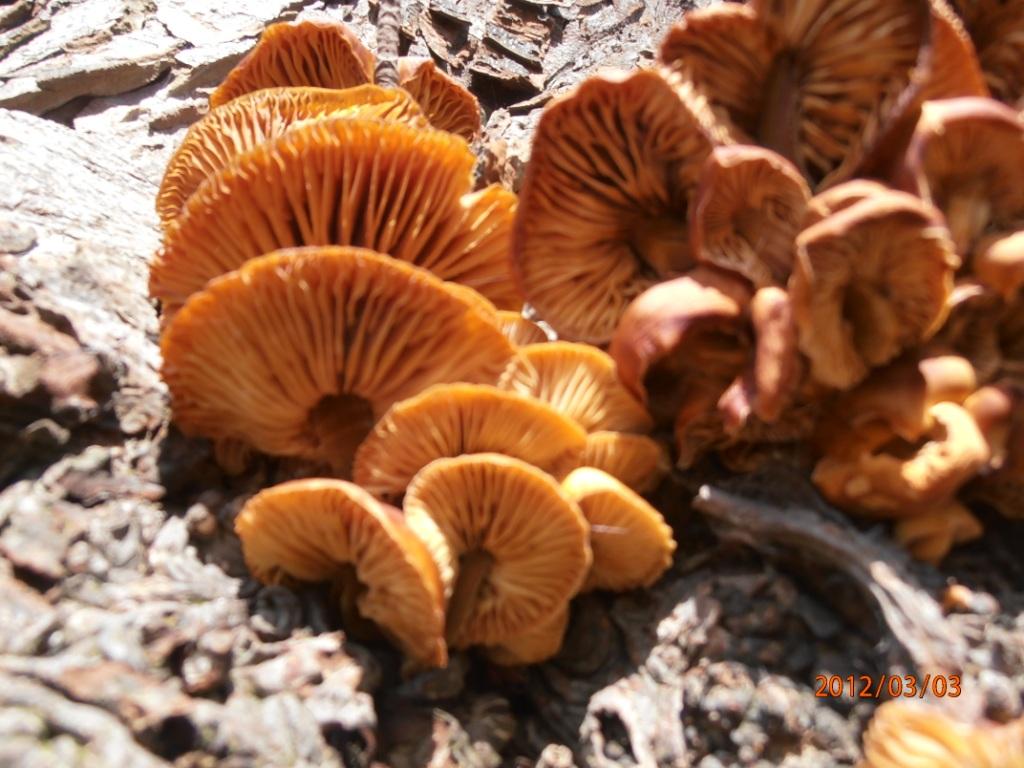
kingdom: Fungi
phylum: Basidiomycota
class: Agaricomycetes
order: Agaricales
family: Physalacriaceae
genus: Flammulina
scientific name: Flammulina velutipes
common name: gul fløjlsfod
